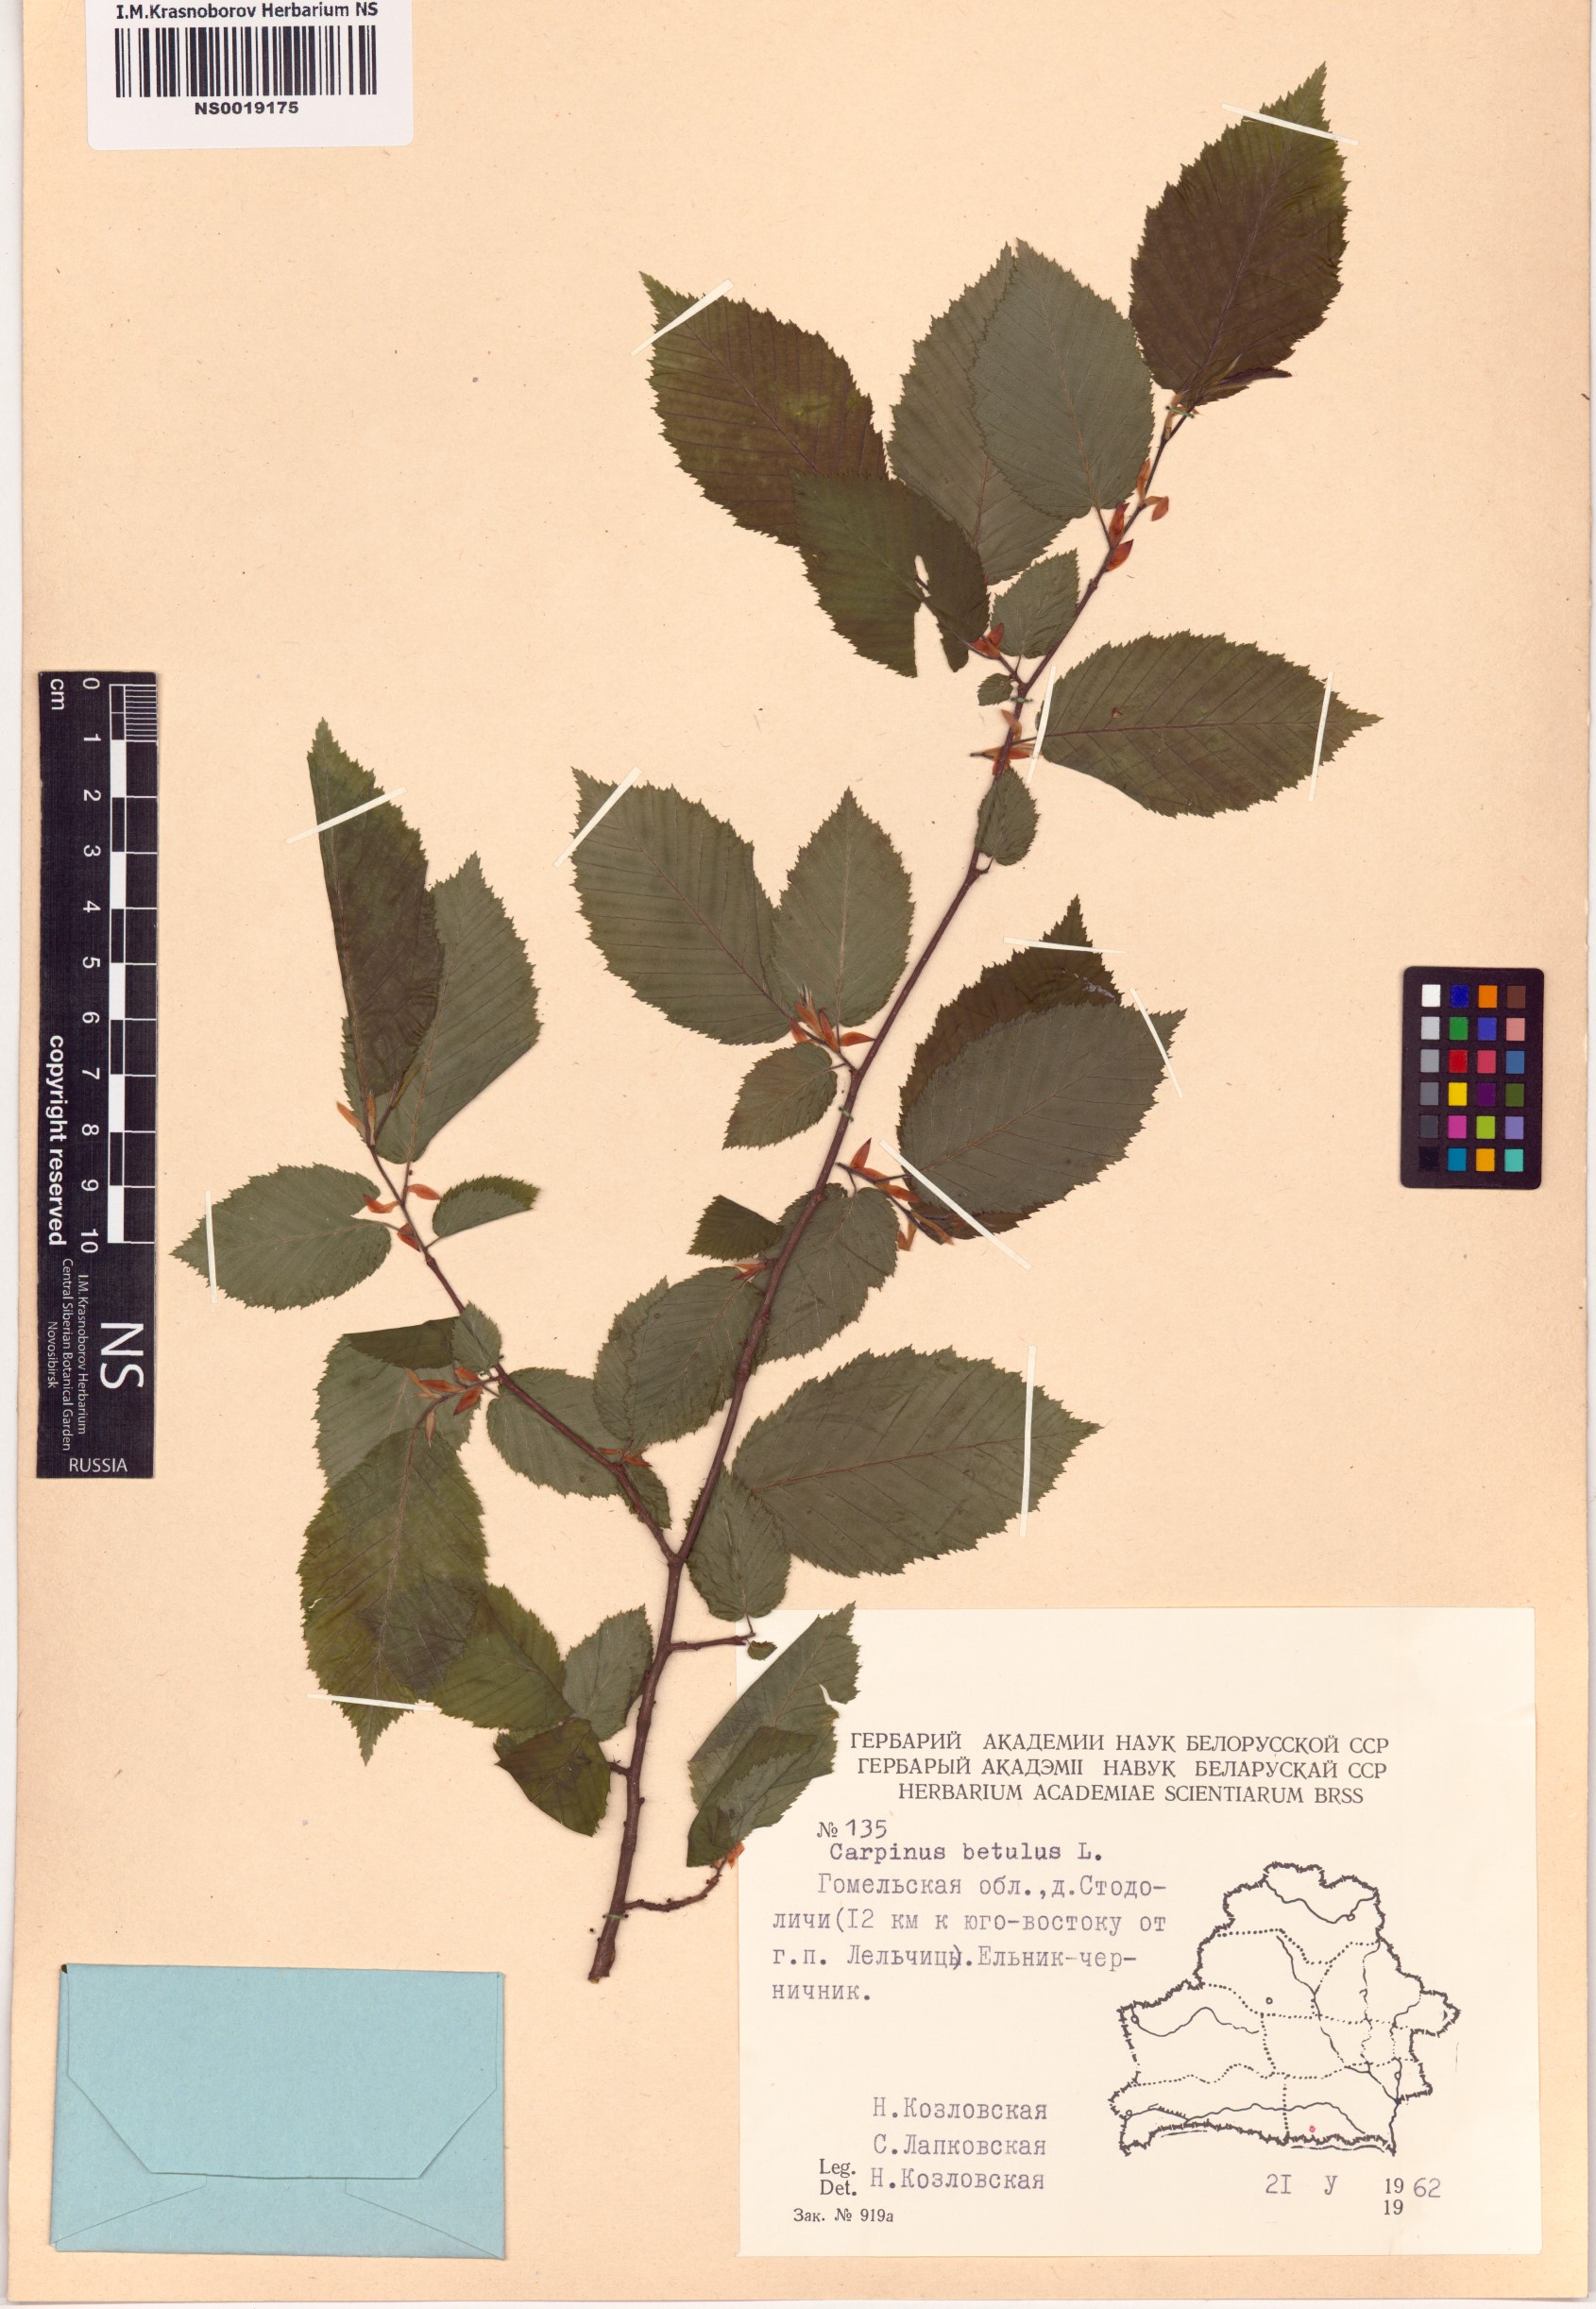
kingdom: Plantae
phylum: Tracheophyta
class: Magnoliopsida
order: Fagales
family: Betulaceae
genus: Carpinus
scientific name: Carpinus betulus
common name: Hornbeam
